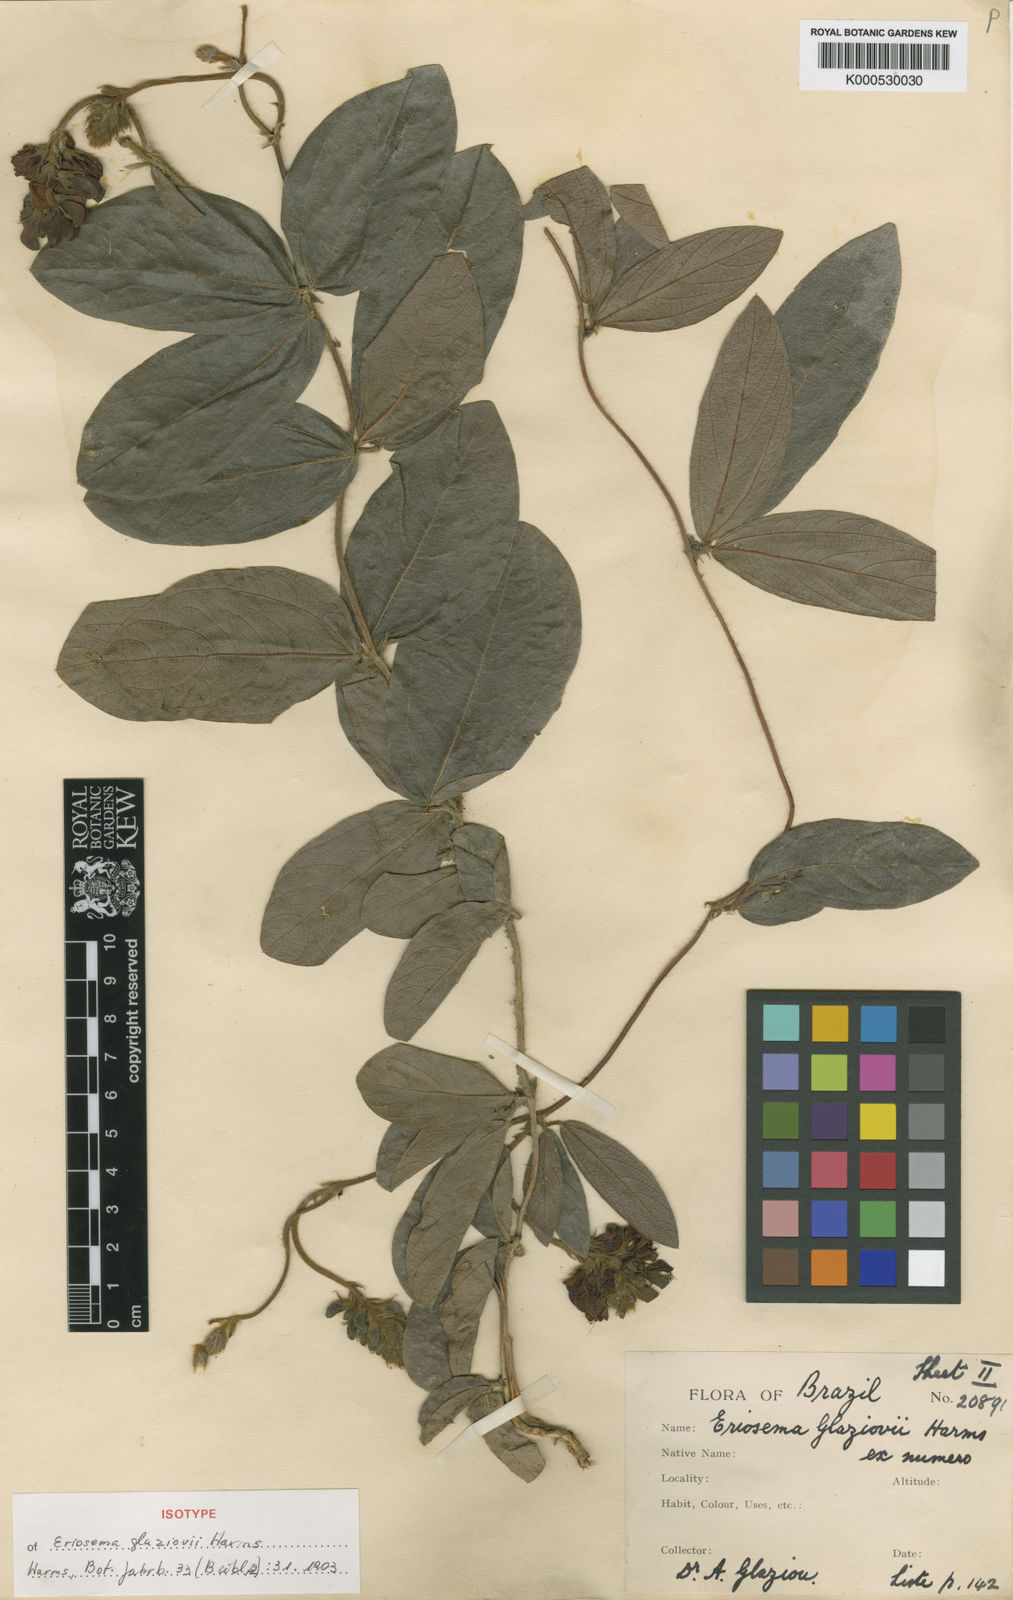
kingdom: Plantae
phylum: Tracheophyta
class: Magnoliopsida
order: Fabales
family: Fabaceae
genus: Eriosema
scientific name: Eriosema glaziovii
